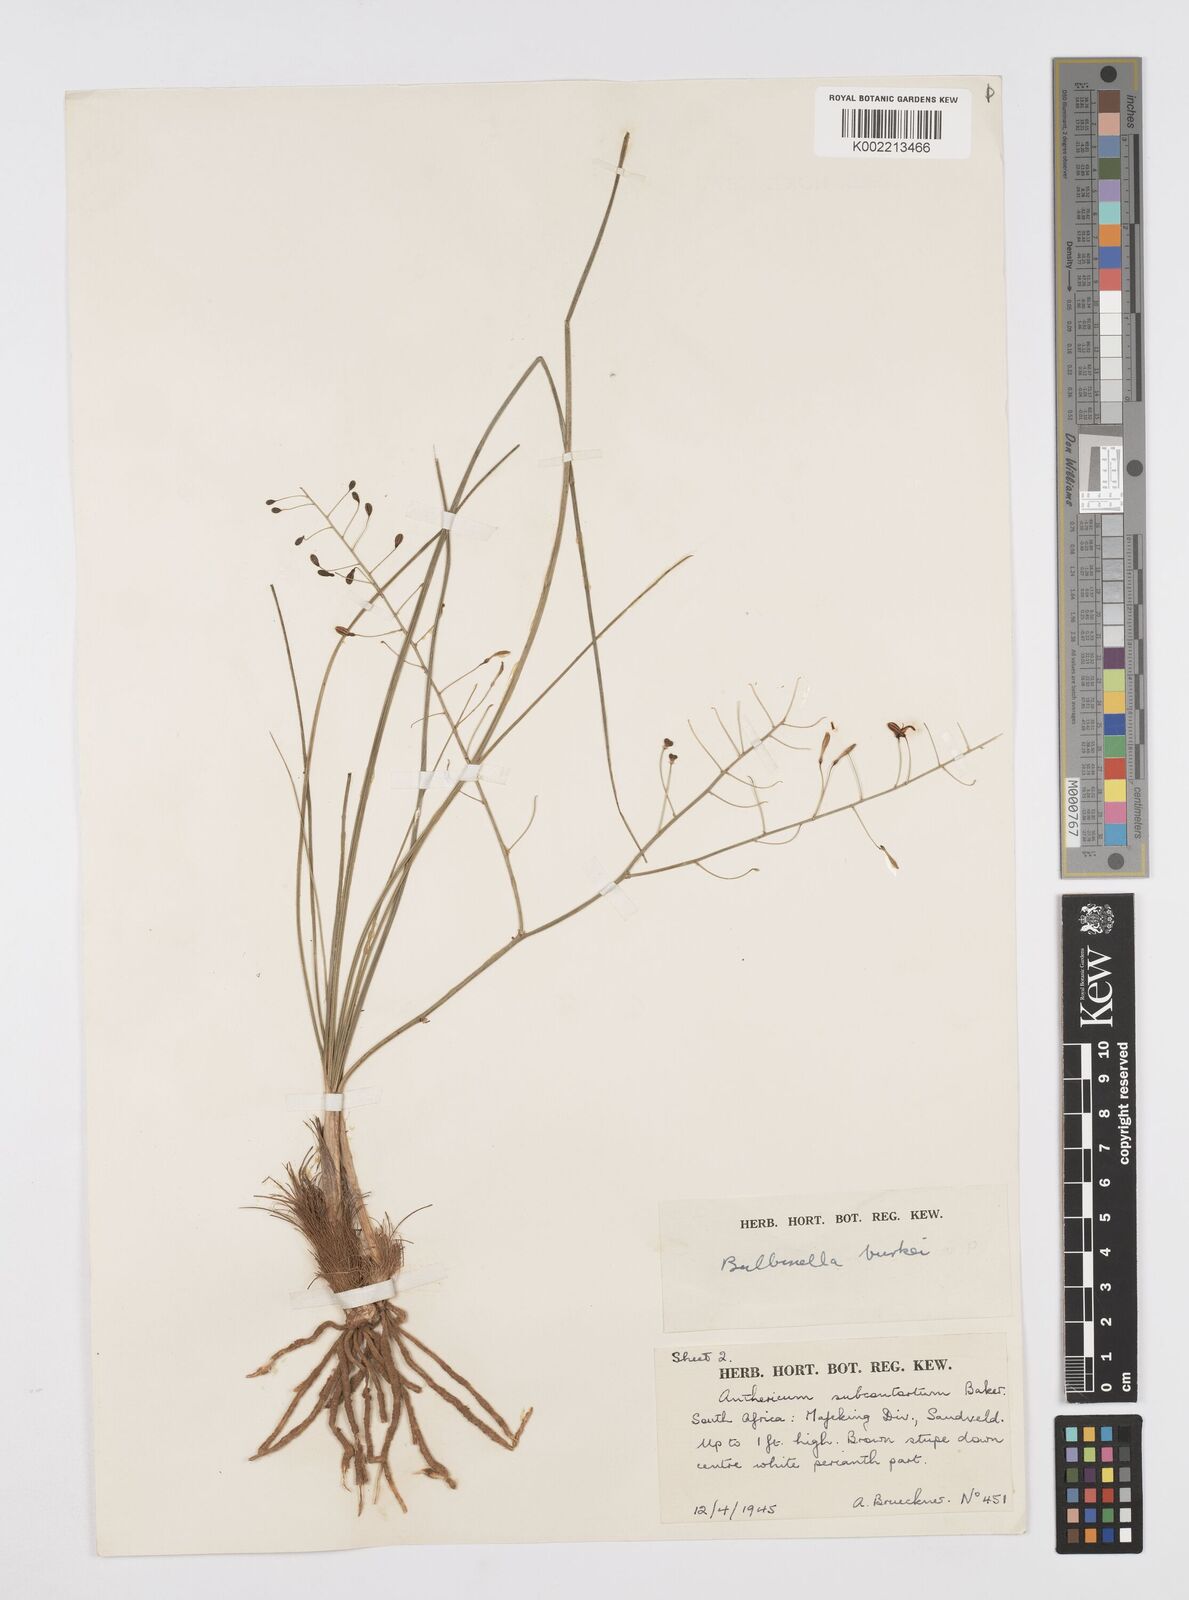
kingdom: Plantae
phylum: Tracheophyta
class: Liliopsida
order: Asparagales
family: Asphodelaceae
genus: Trachyandra
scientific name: Trachyandra burkei
